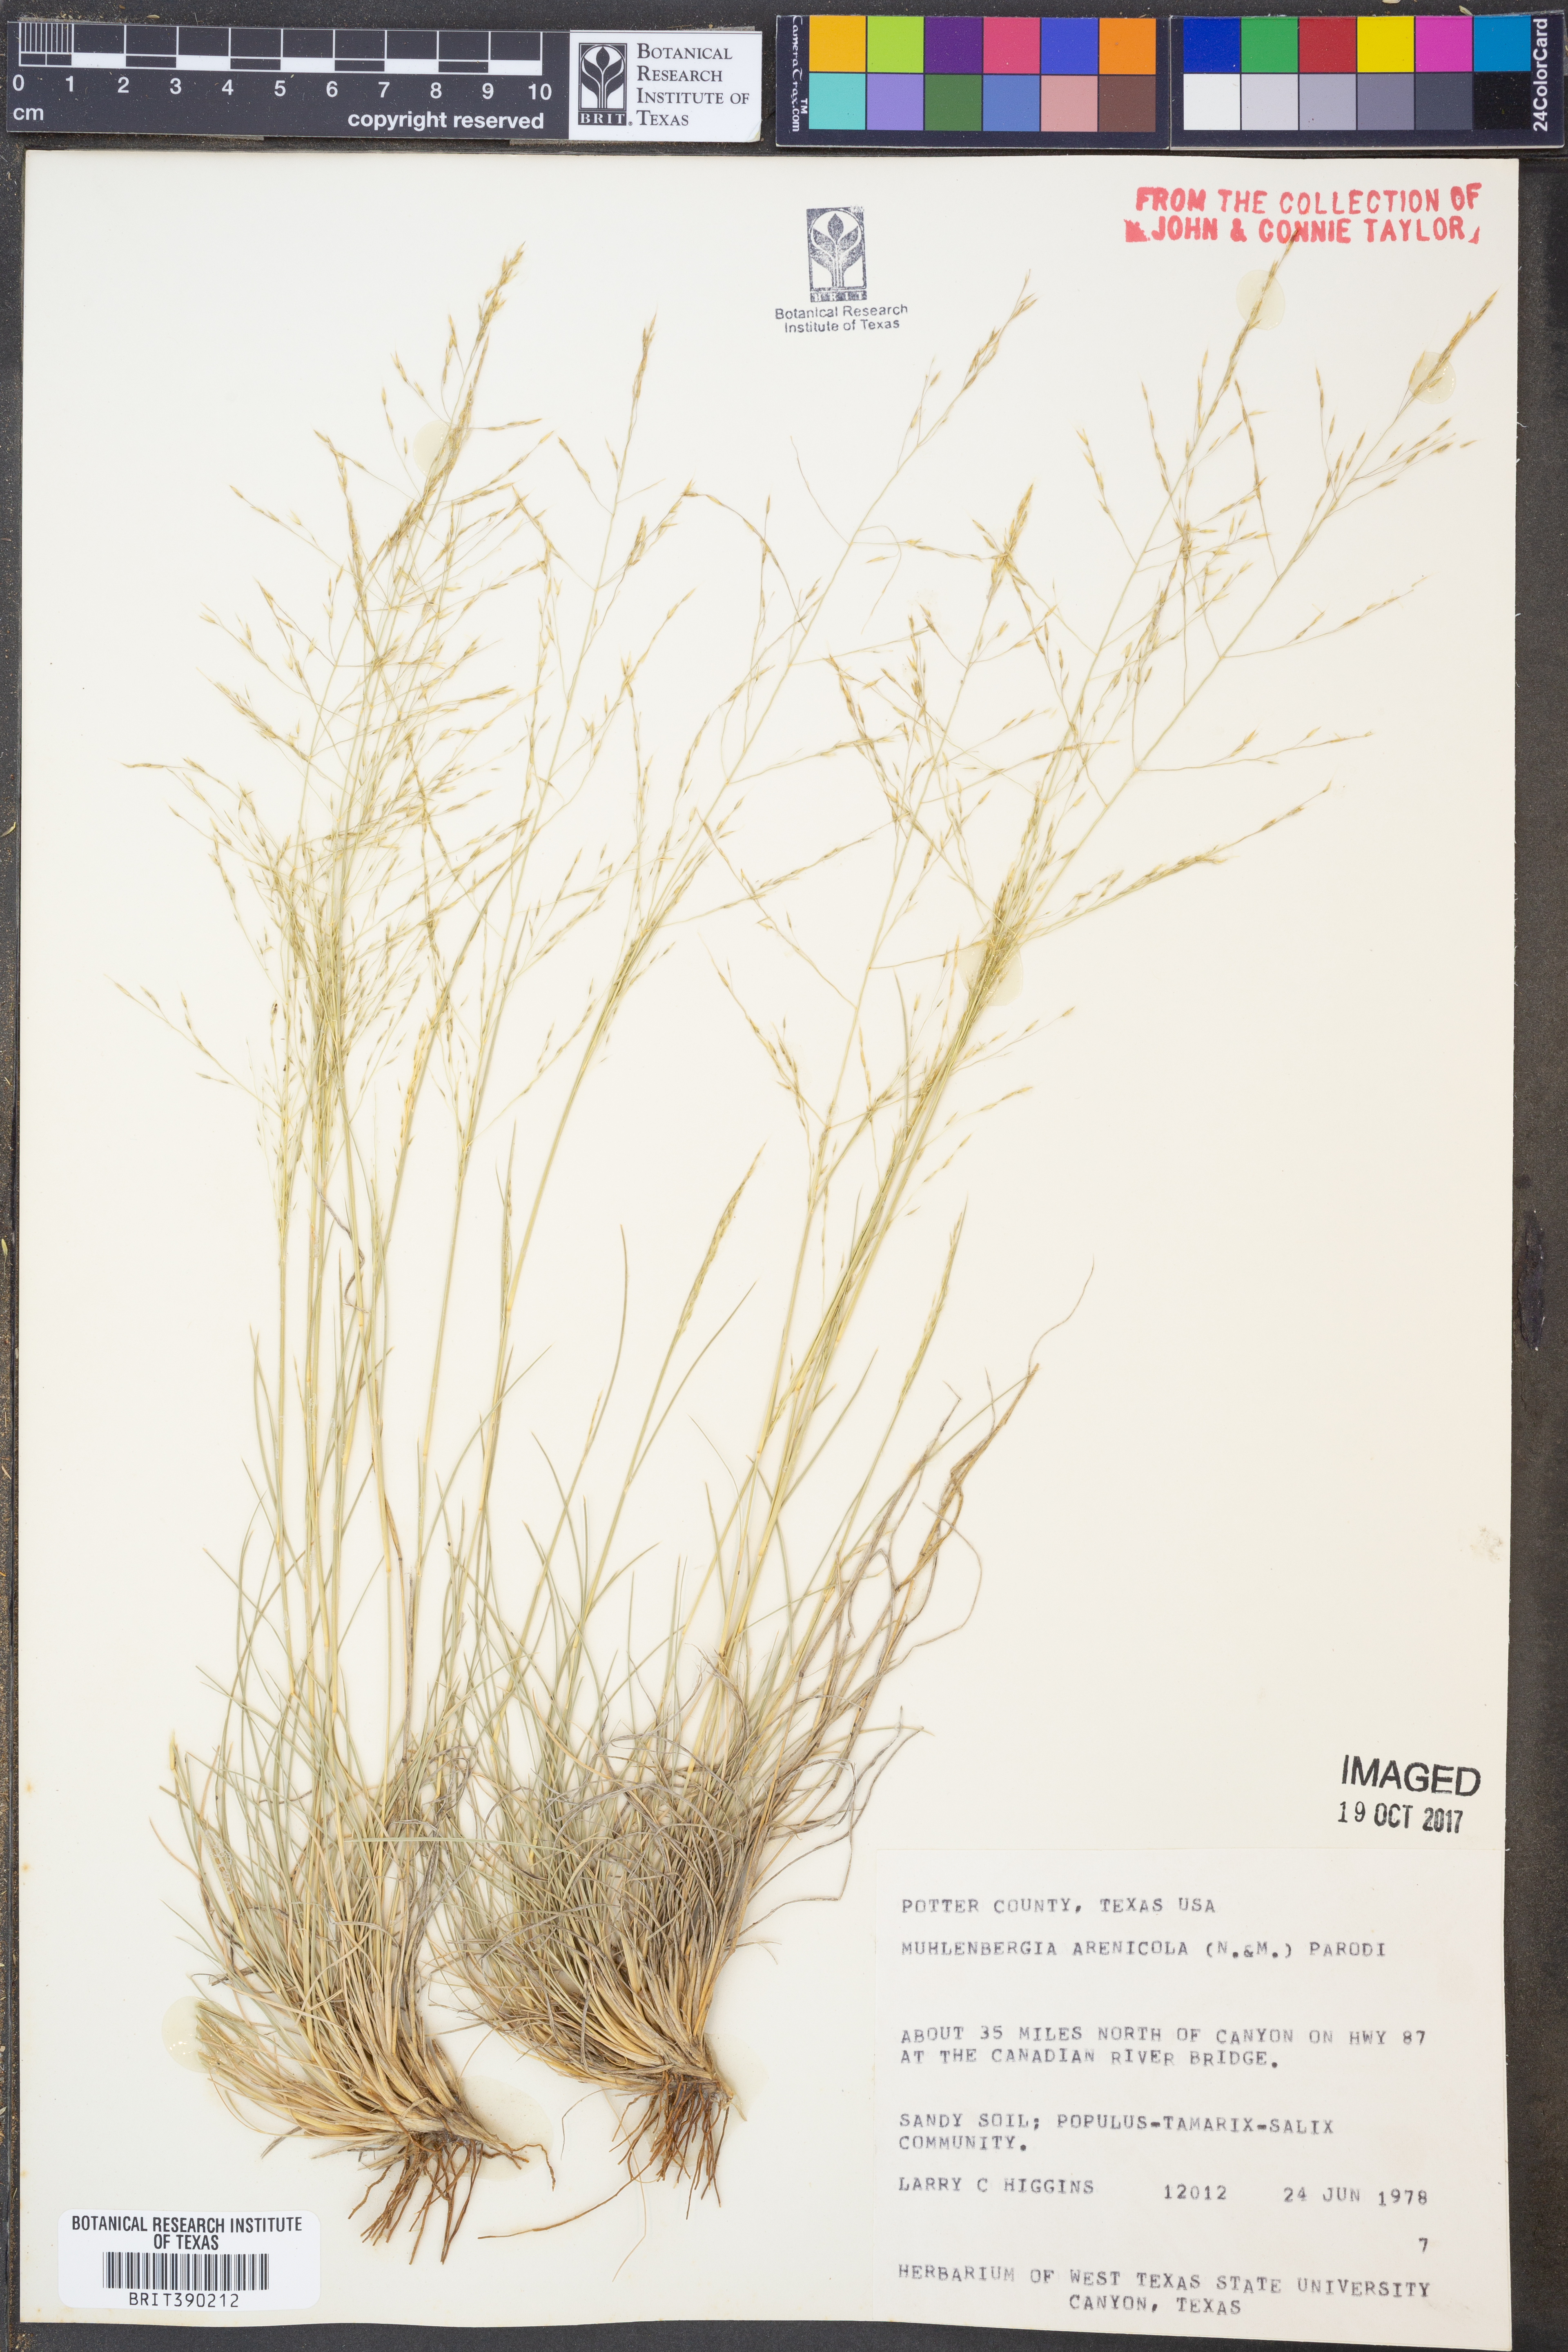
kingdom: Plantae
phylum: Tracheophyta
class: Liliopsida
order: Poales
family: Poaceae
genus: Muhlenbergia
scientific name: Muhlenbergia arenicola
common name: Sand muhly
